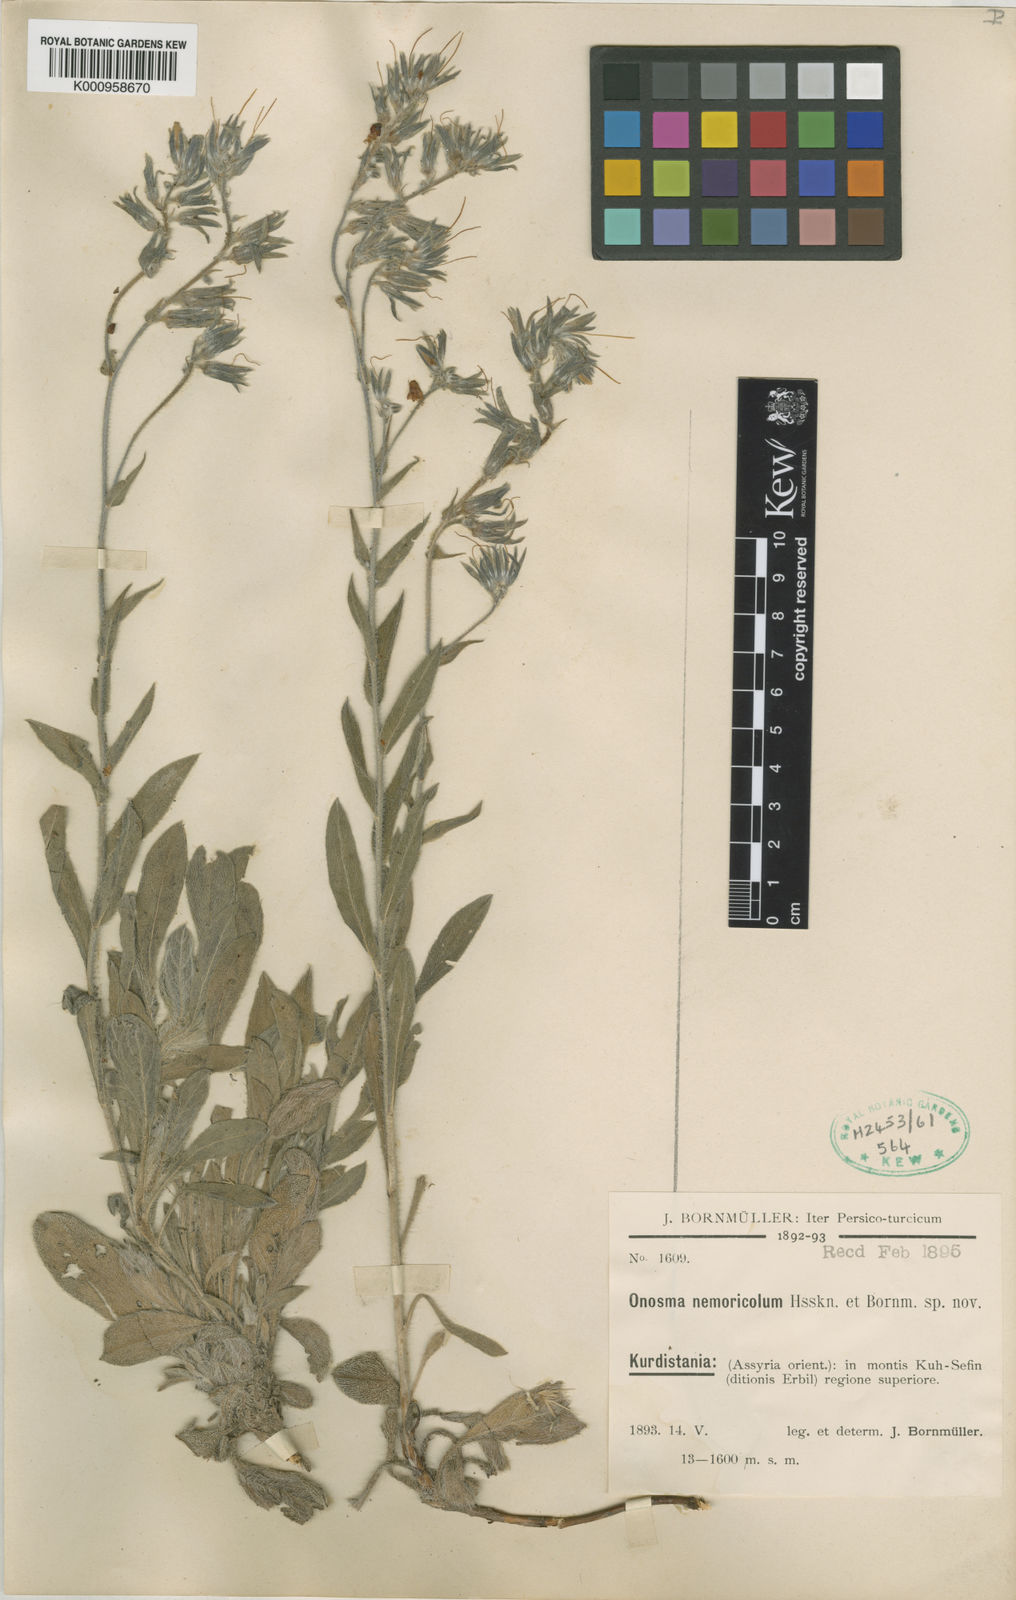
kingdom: Plantae
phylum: Tracheophyta
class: Magnoliopsida
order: Boraginales
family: Boraginaceae
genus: Onosma
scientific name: Onosma nemoricola
